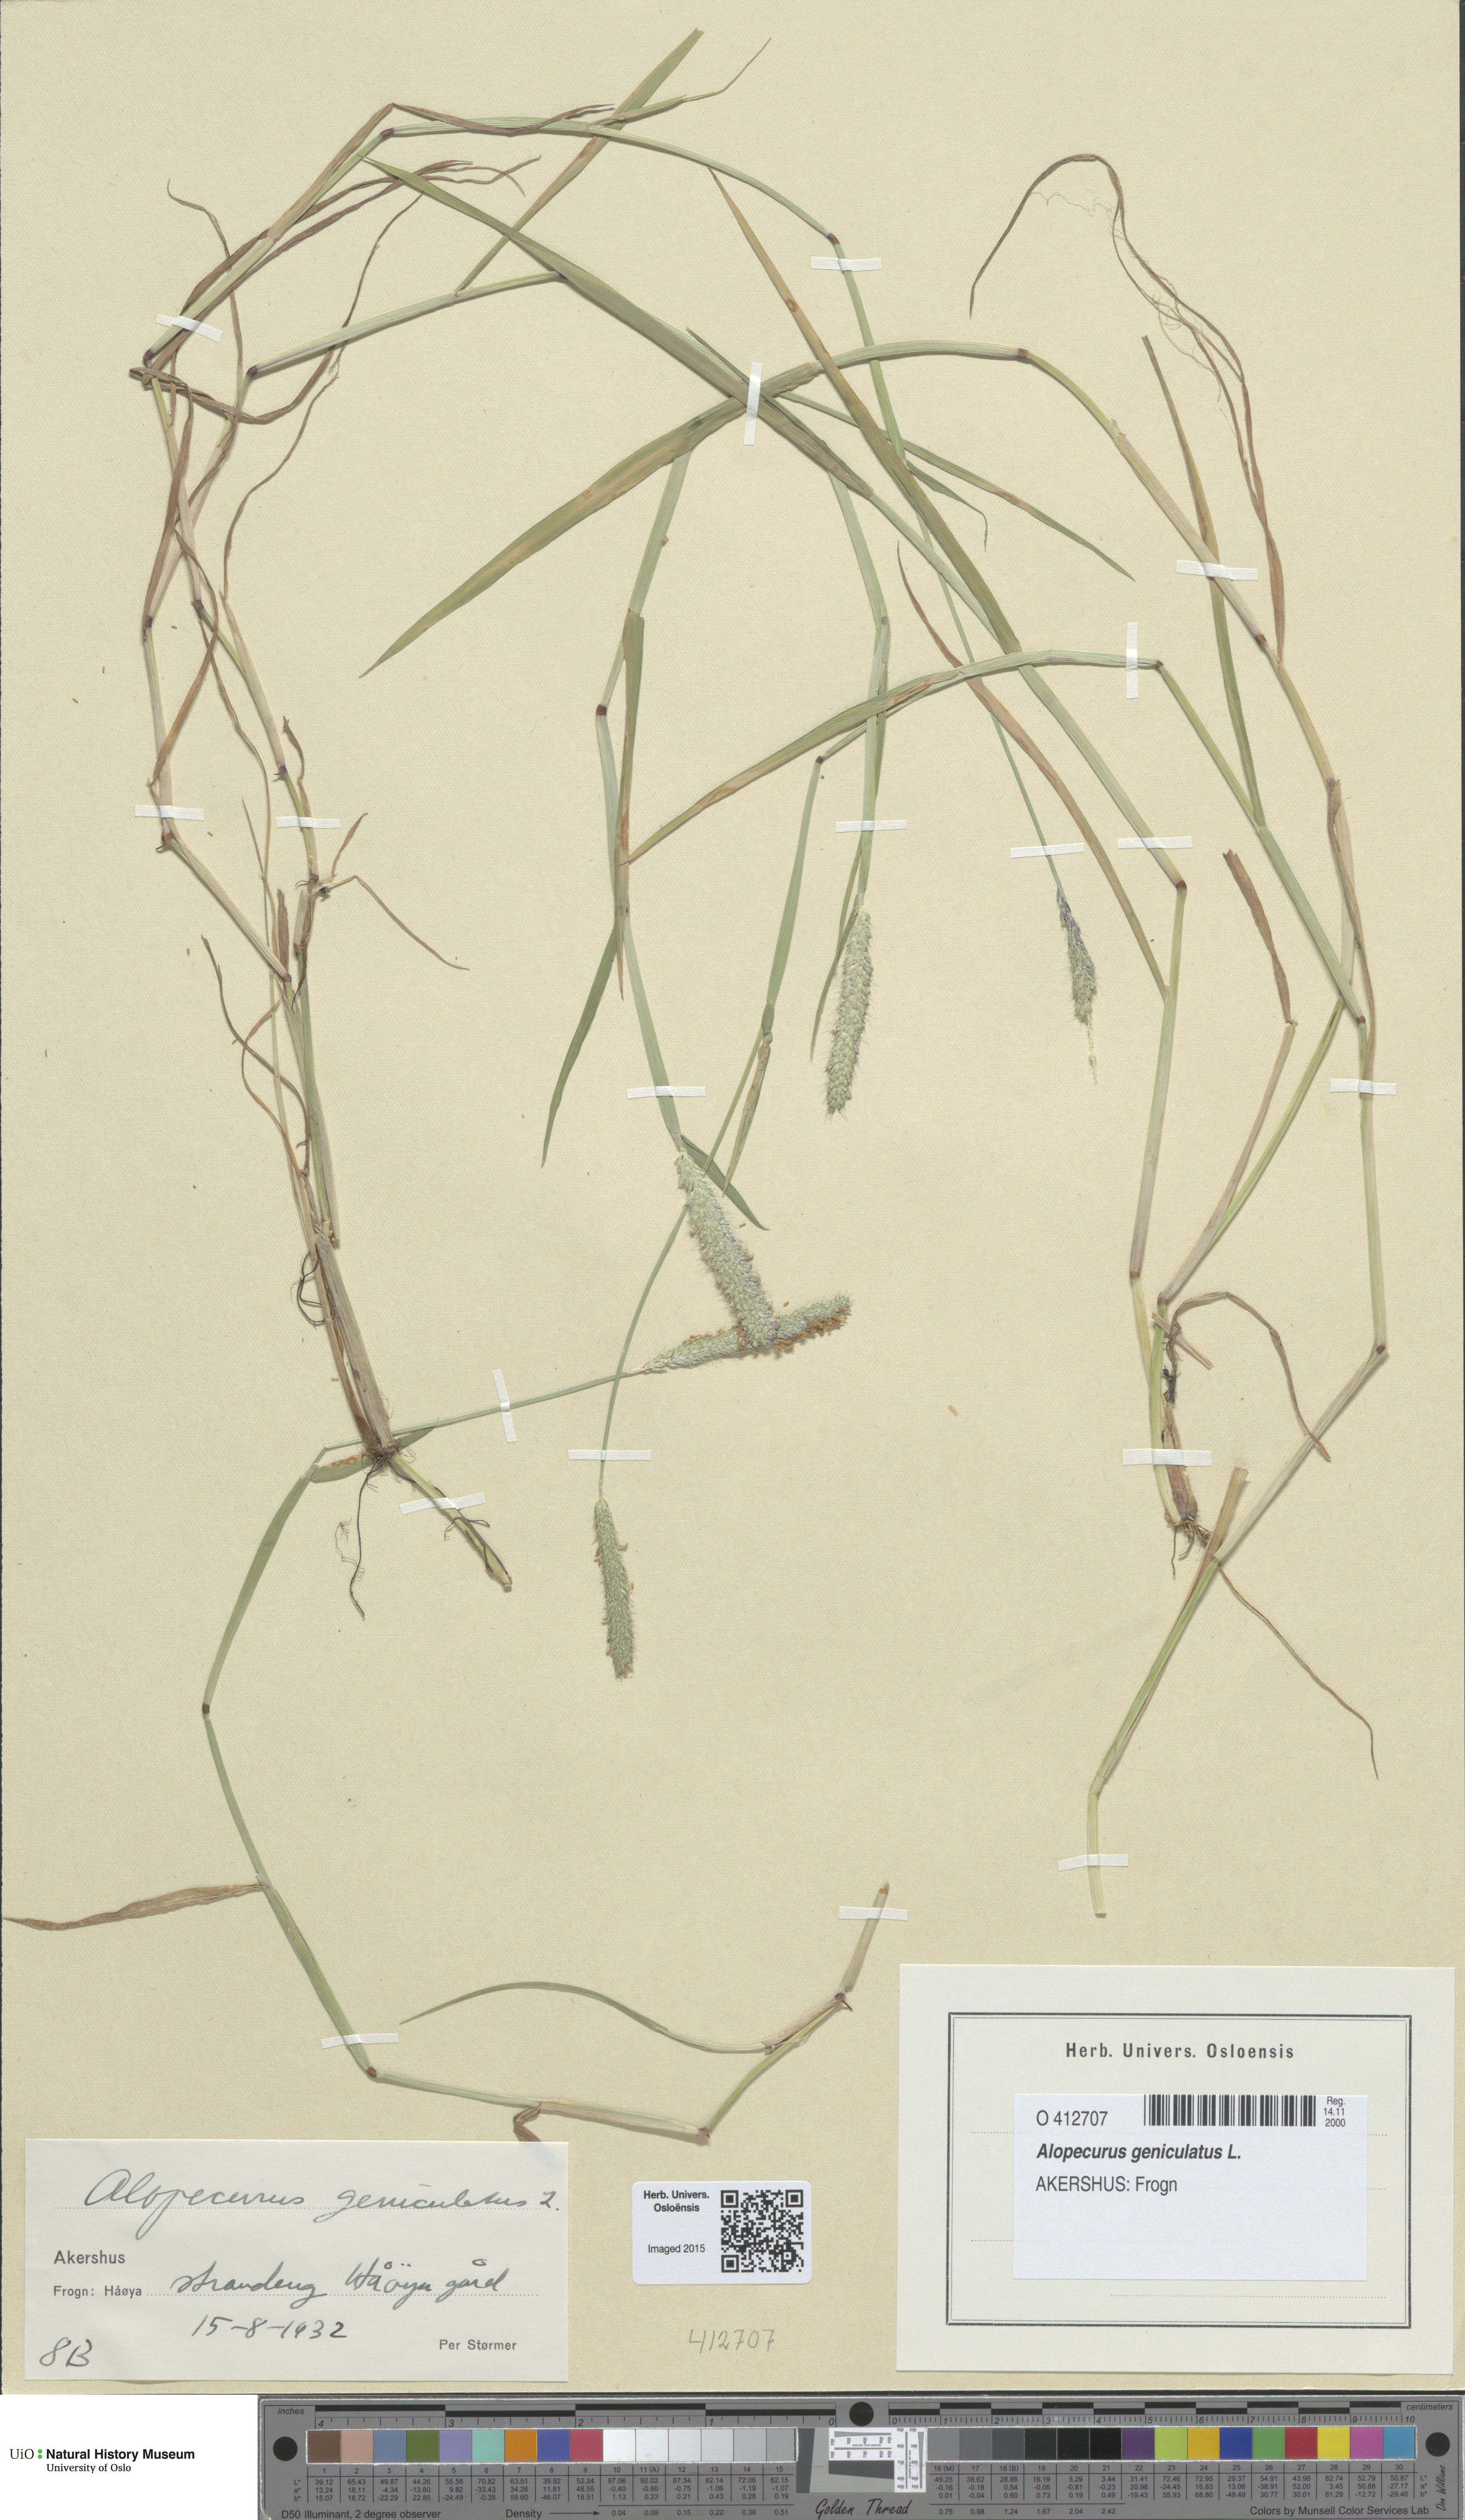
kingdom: Plantae
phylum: Tracheophyta
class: Liliopsida
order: Poales
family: Poaceae
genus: Alopecurus
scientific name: Alopecurus geniculatus
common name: Water foxtail
